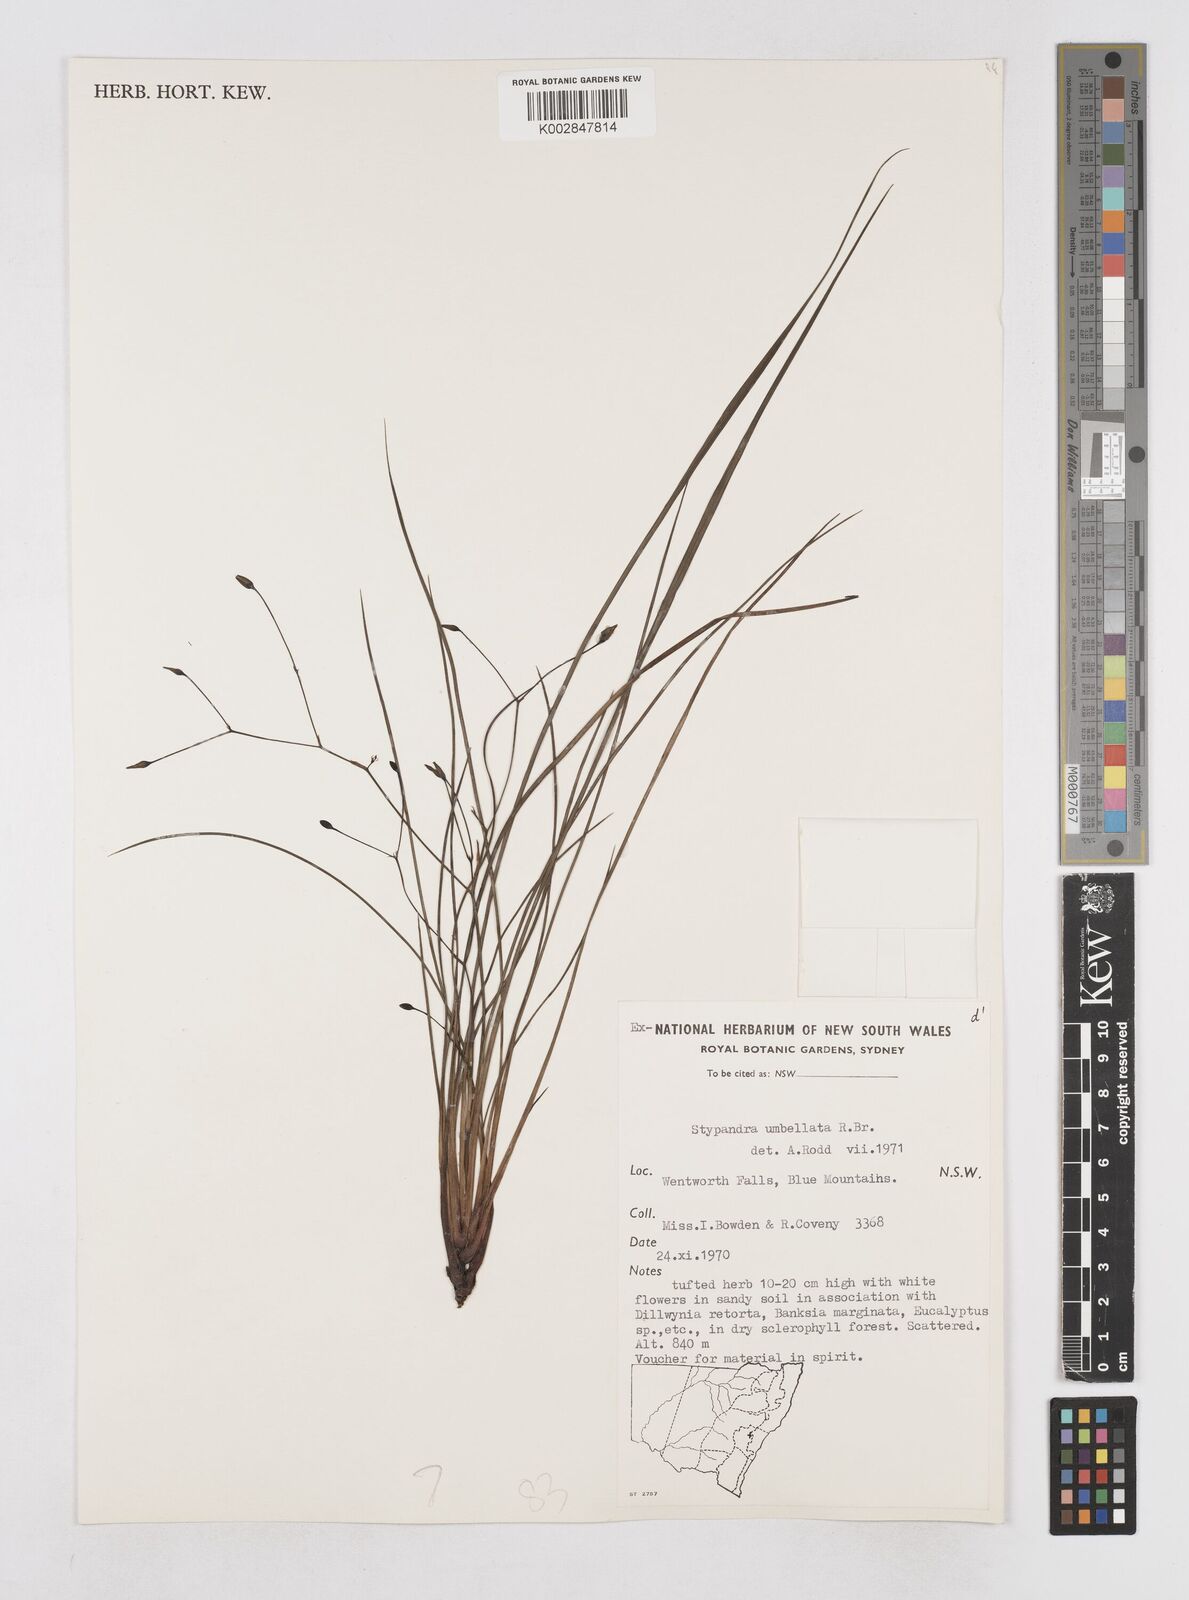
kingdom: Plantae
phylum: Tracheophyta
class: Liliopsida
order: Asparagales
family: Asphodelaceae
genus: Thelionema
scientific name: Thelionema umbellatum
